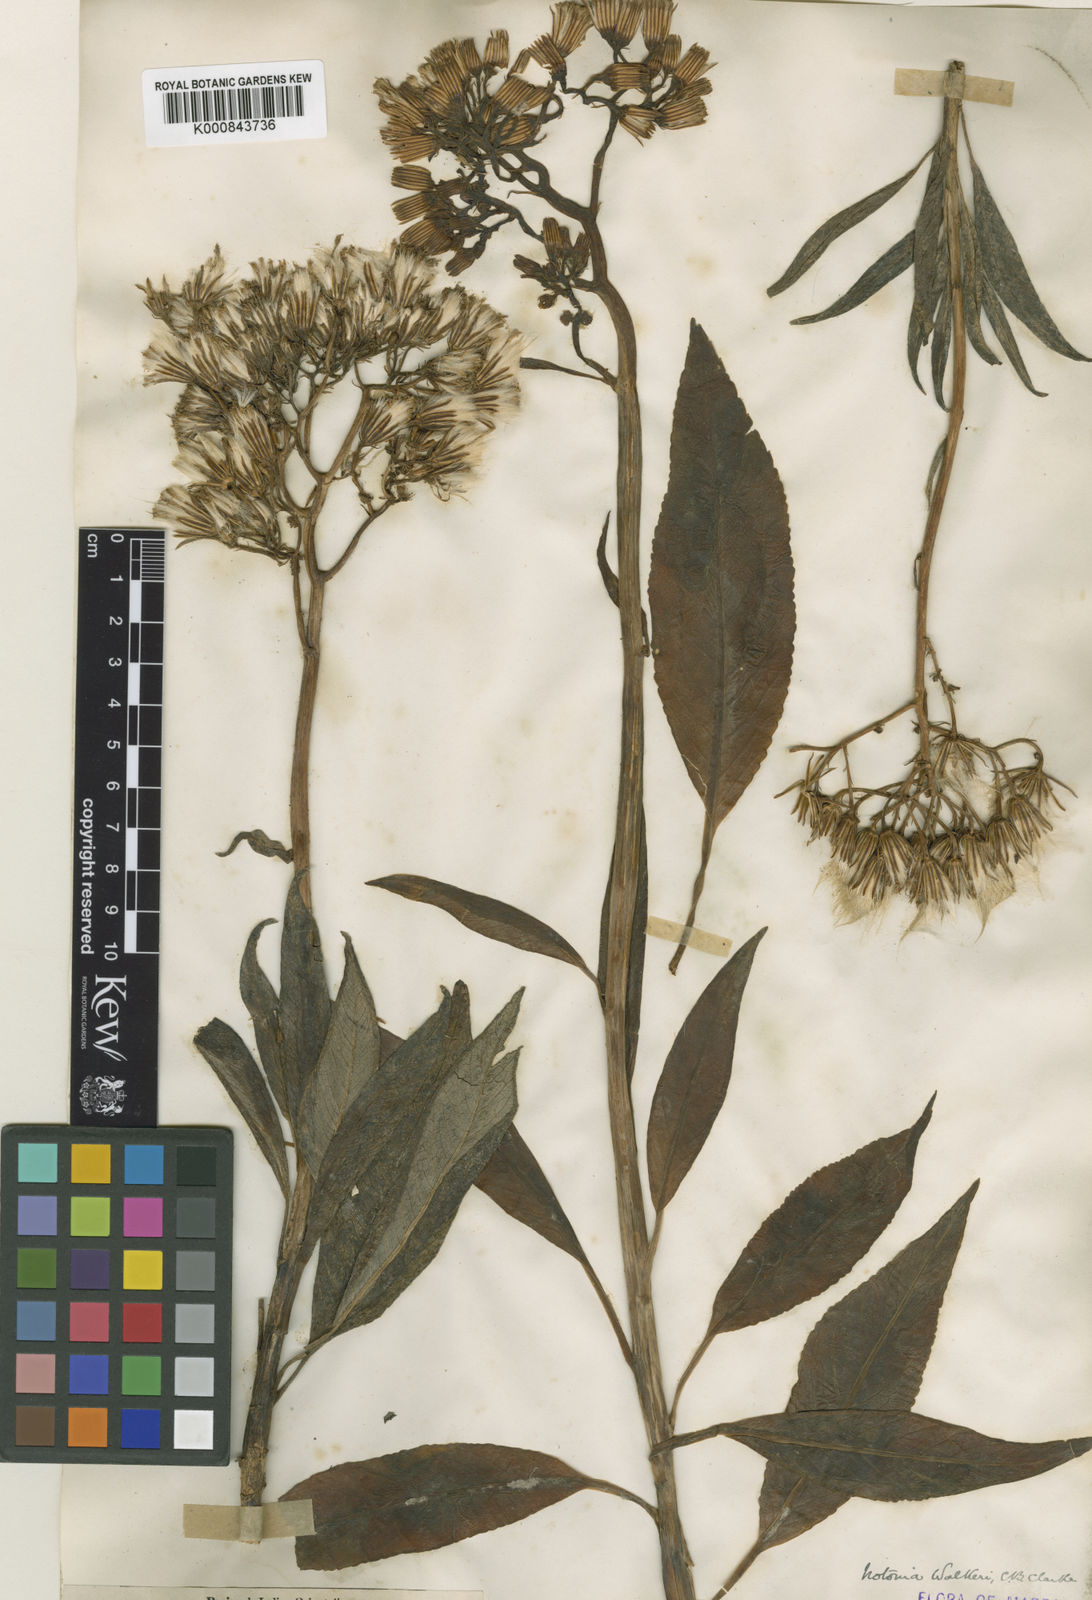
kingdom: Plantae
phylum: Tracheophyta
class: Magnoliopsida
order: Asterales
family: Asteraceae
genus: Kleinia
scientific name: Kleinia
